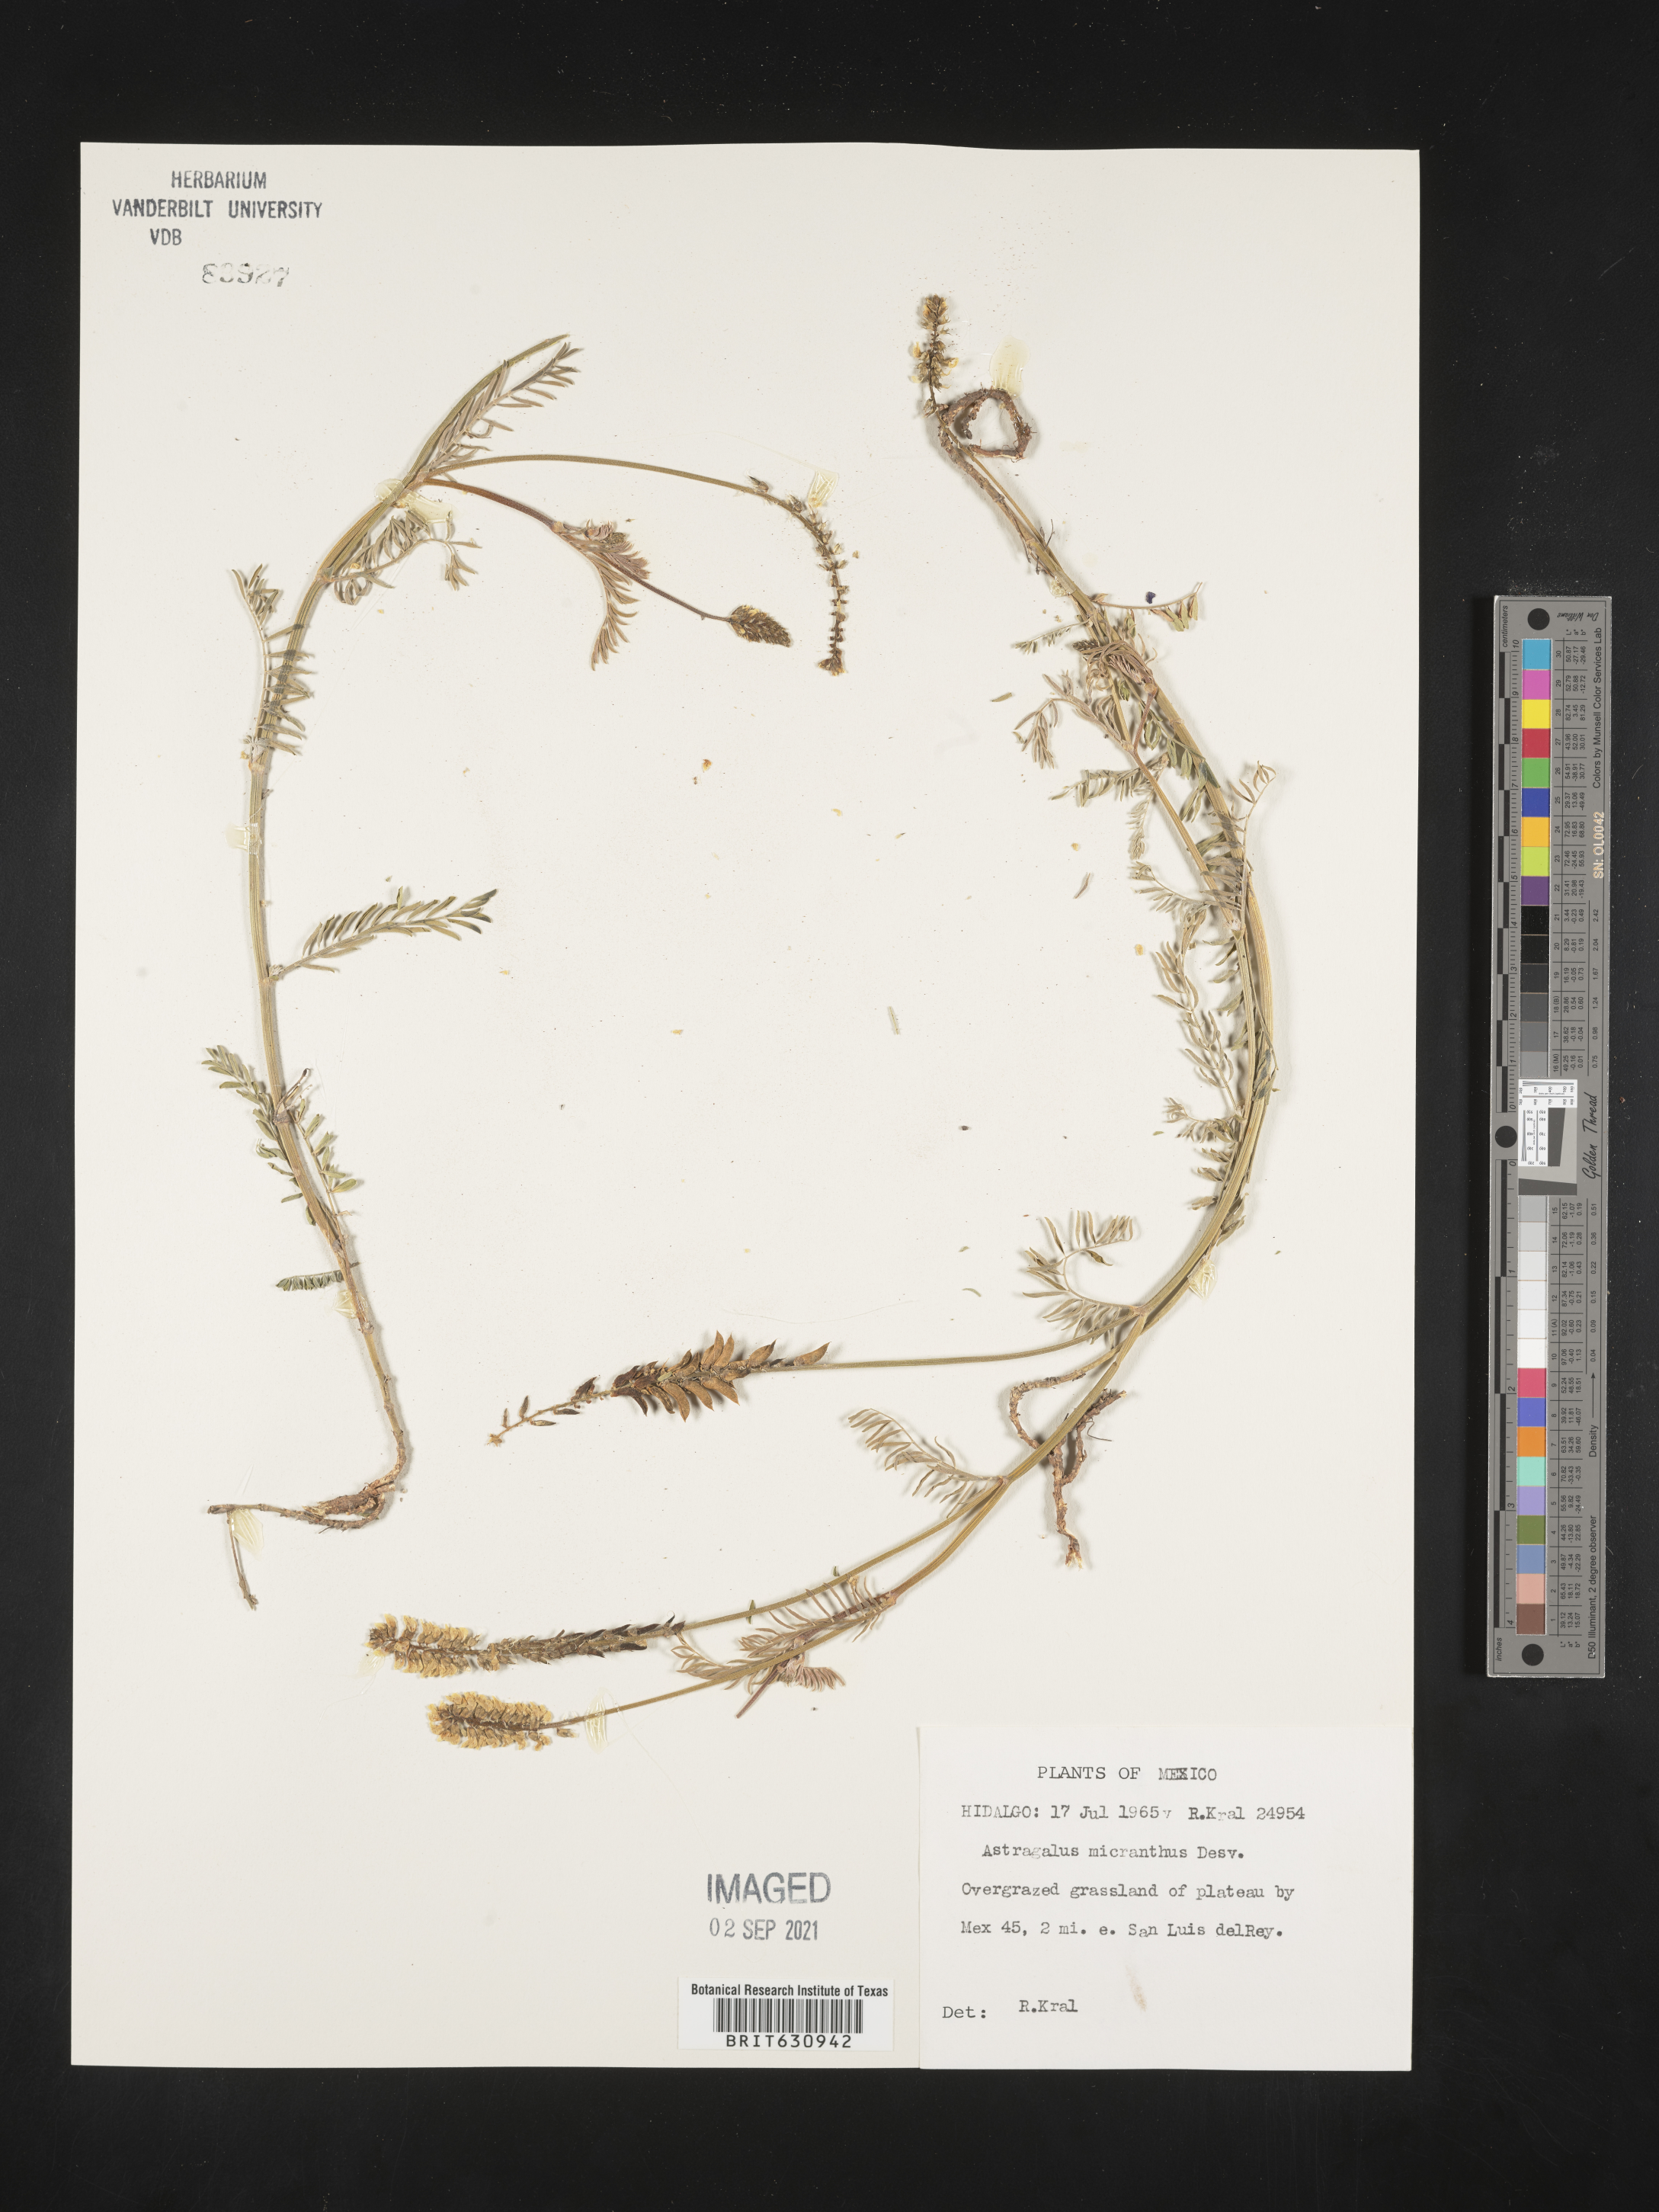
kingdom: Plantae
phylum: Tracheophyta
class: Magnoliopsida
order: Fabales
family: Fabaceae
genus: Astragalus
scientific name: Astragalus
